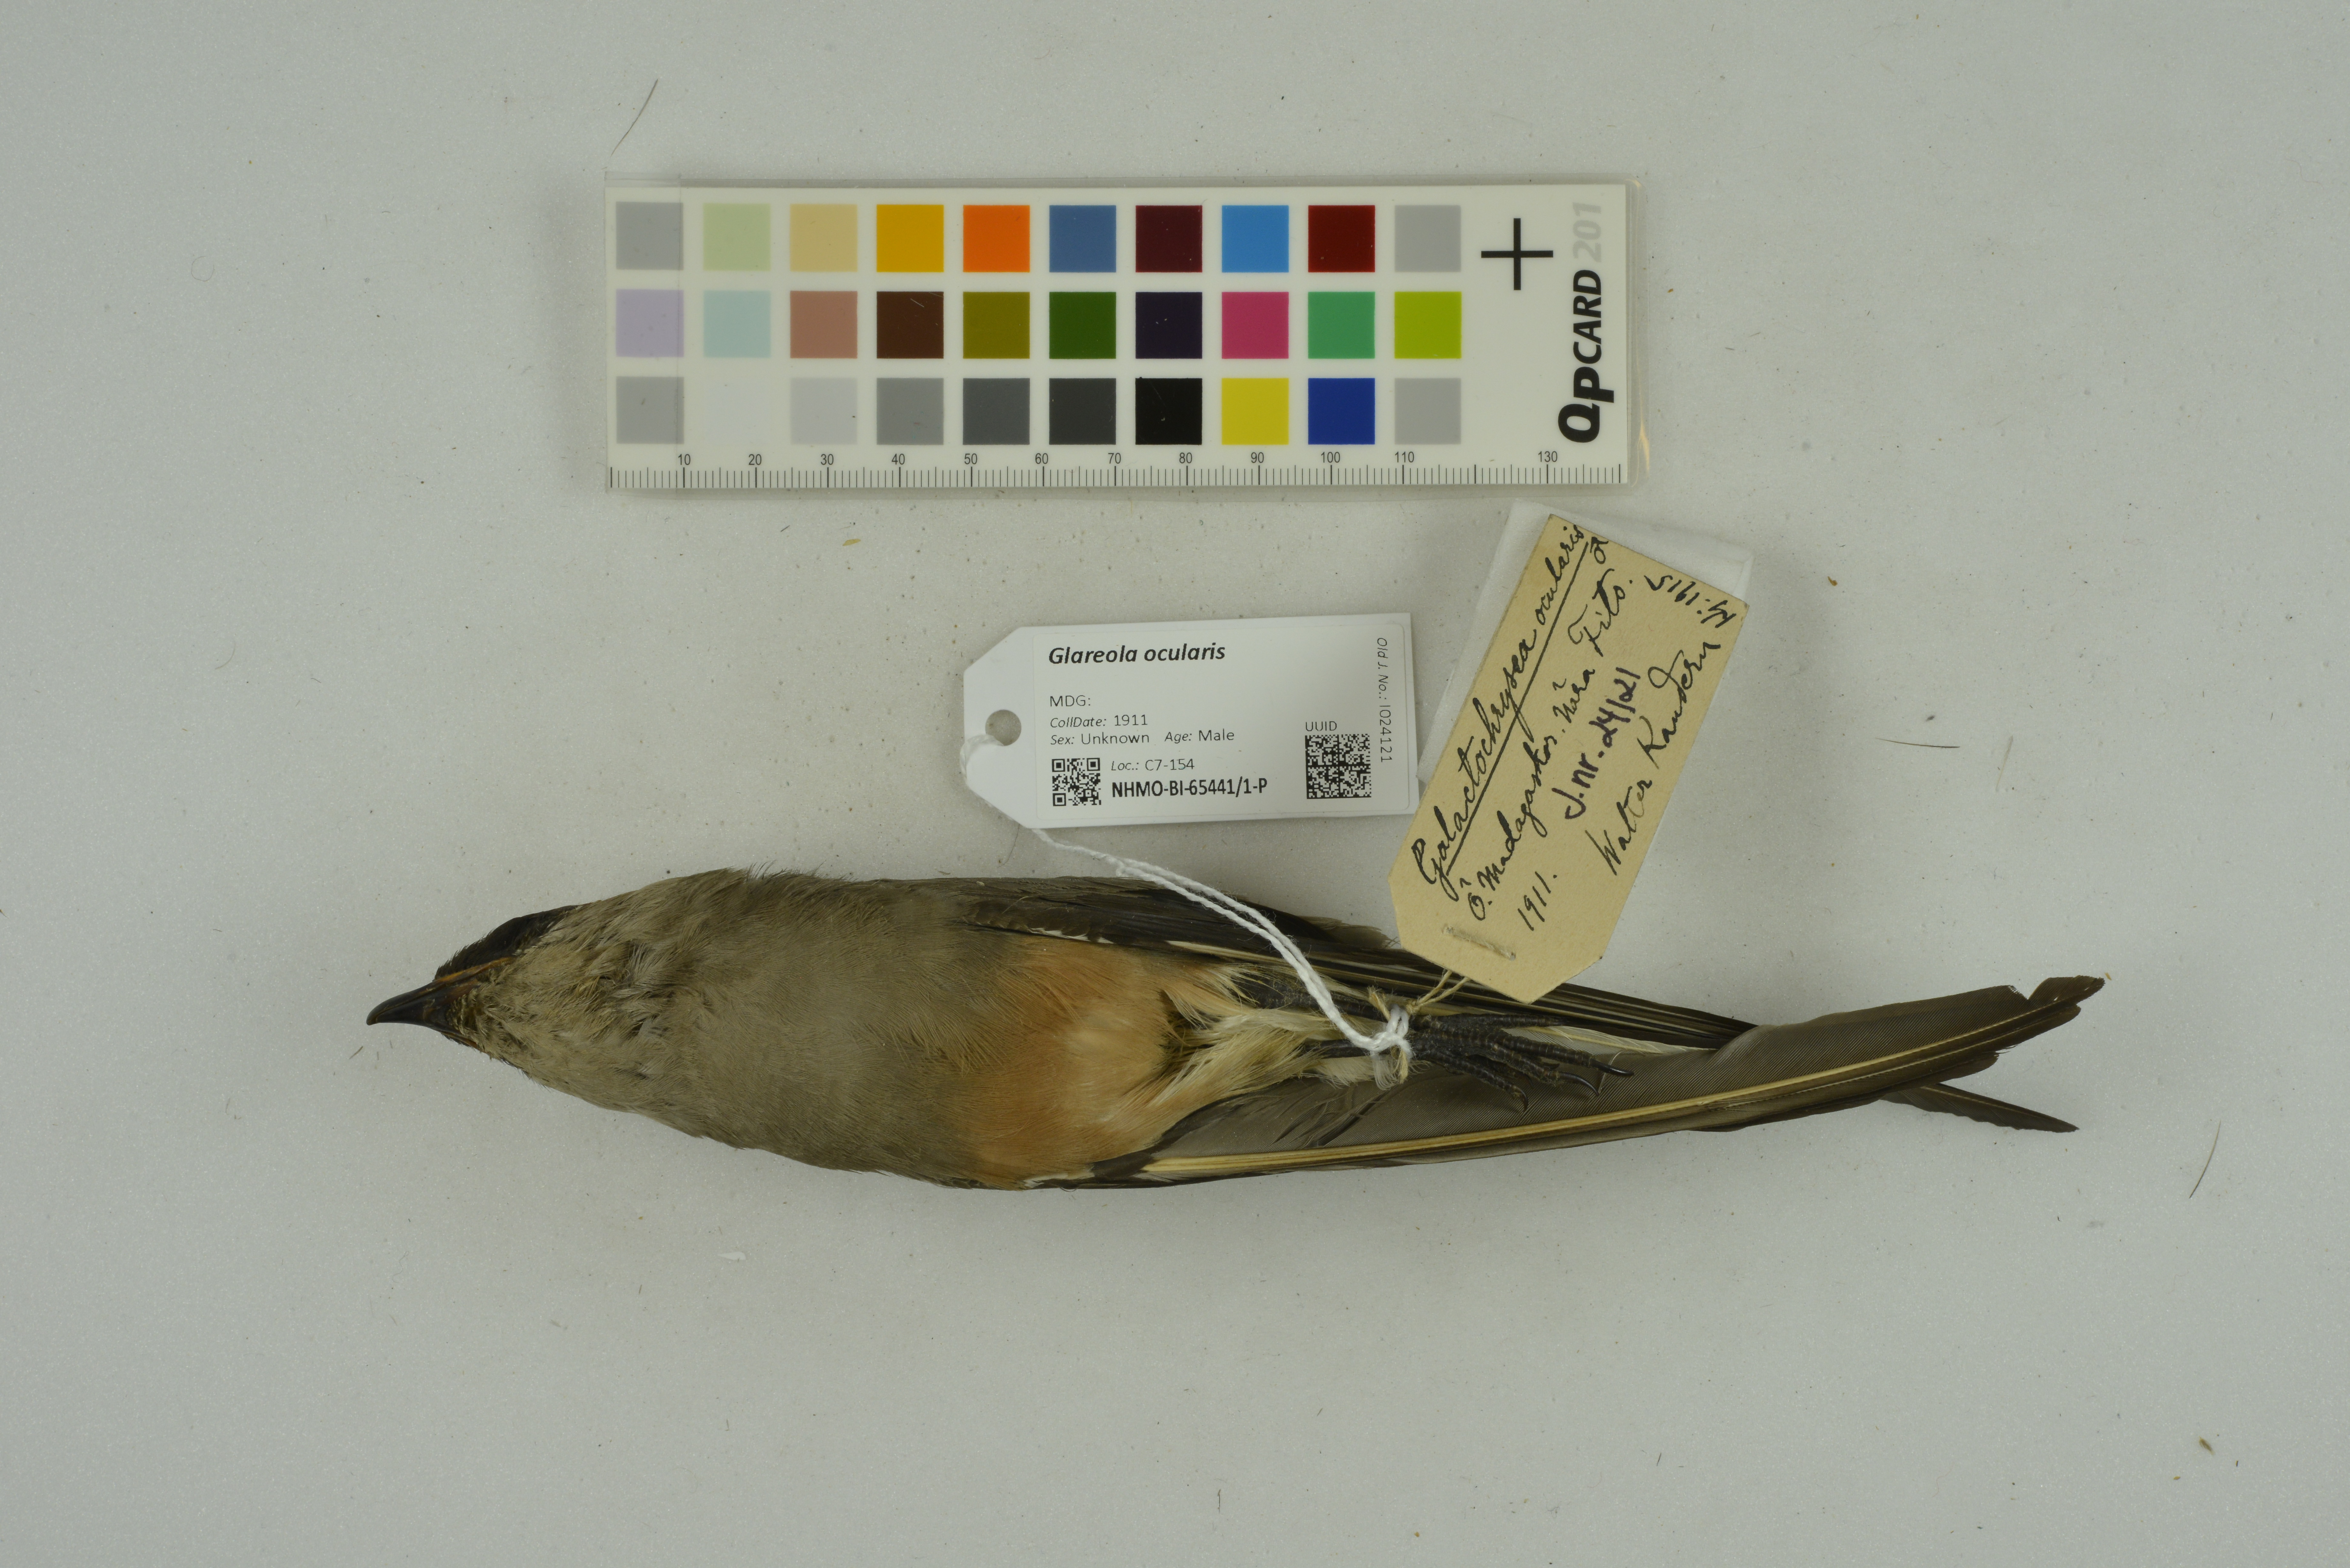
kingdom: Animalia
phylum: Chordata
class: Aves
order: Charadriiformes
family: Glareolidae
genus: Glareola
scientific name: Glareola ocularis
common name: Madagascar pratincole
